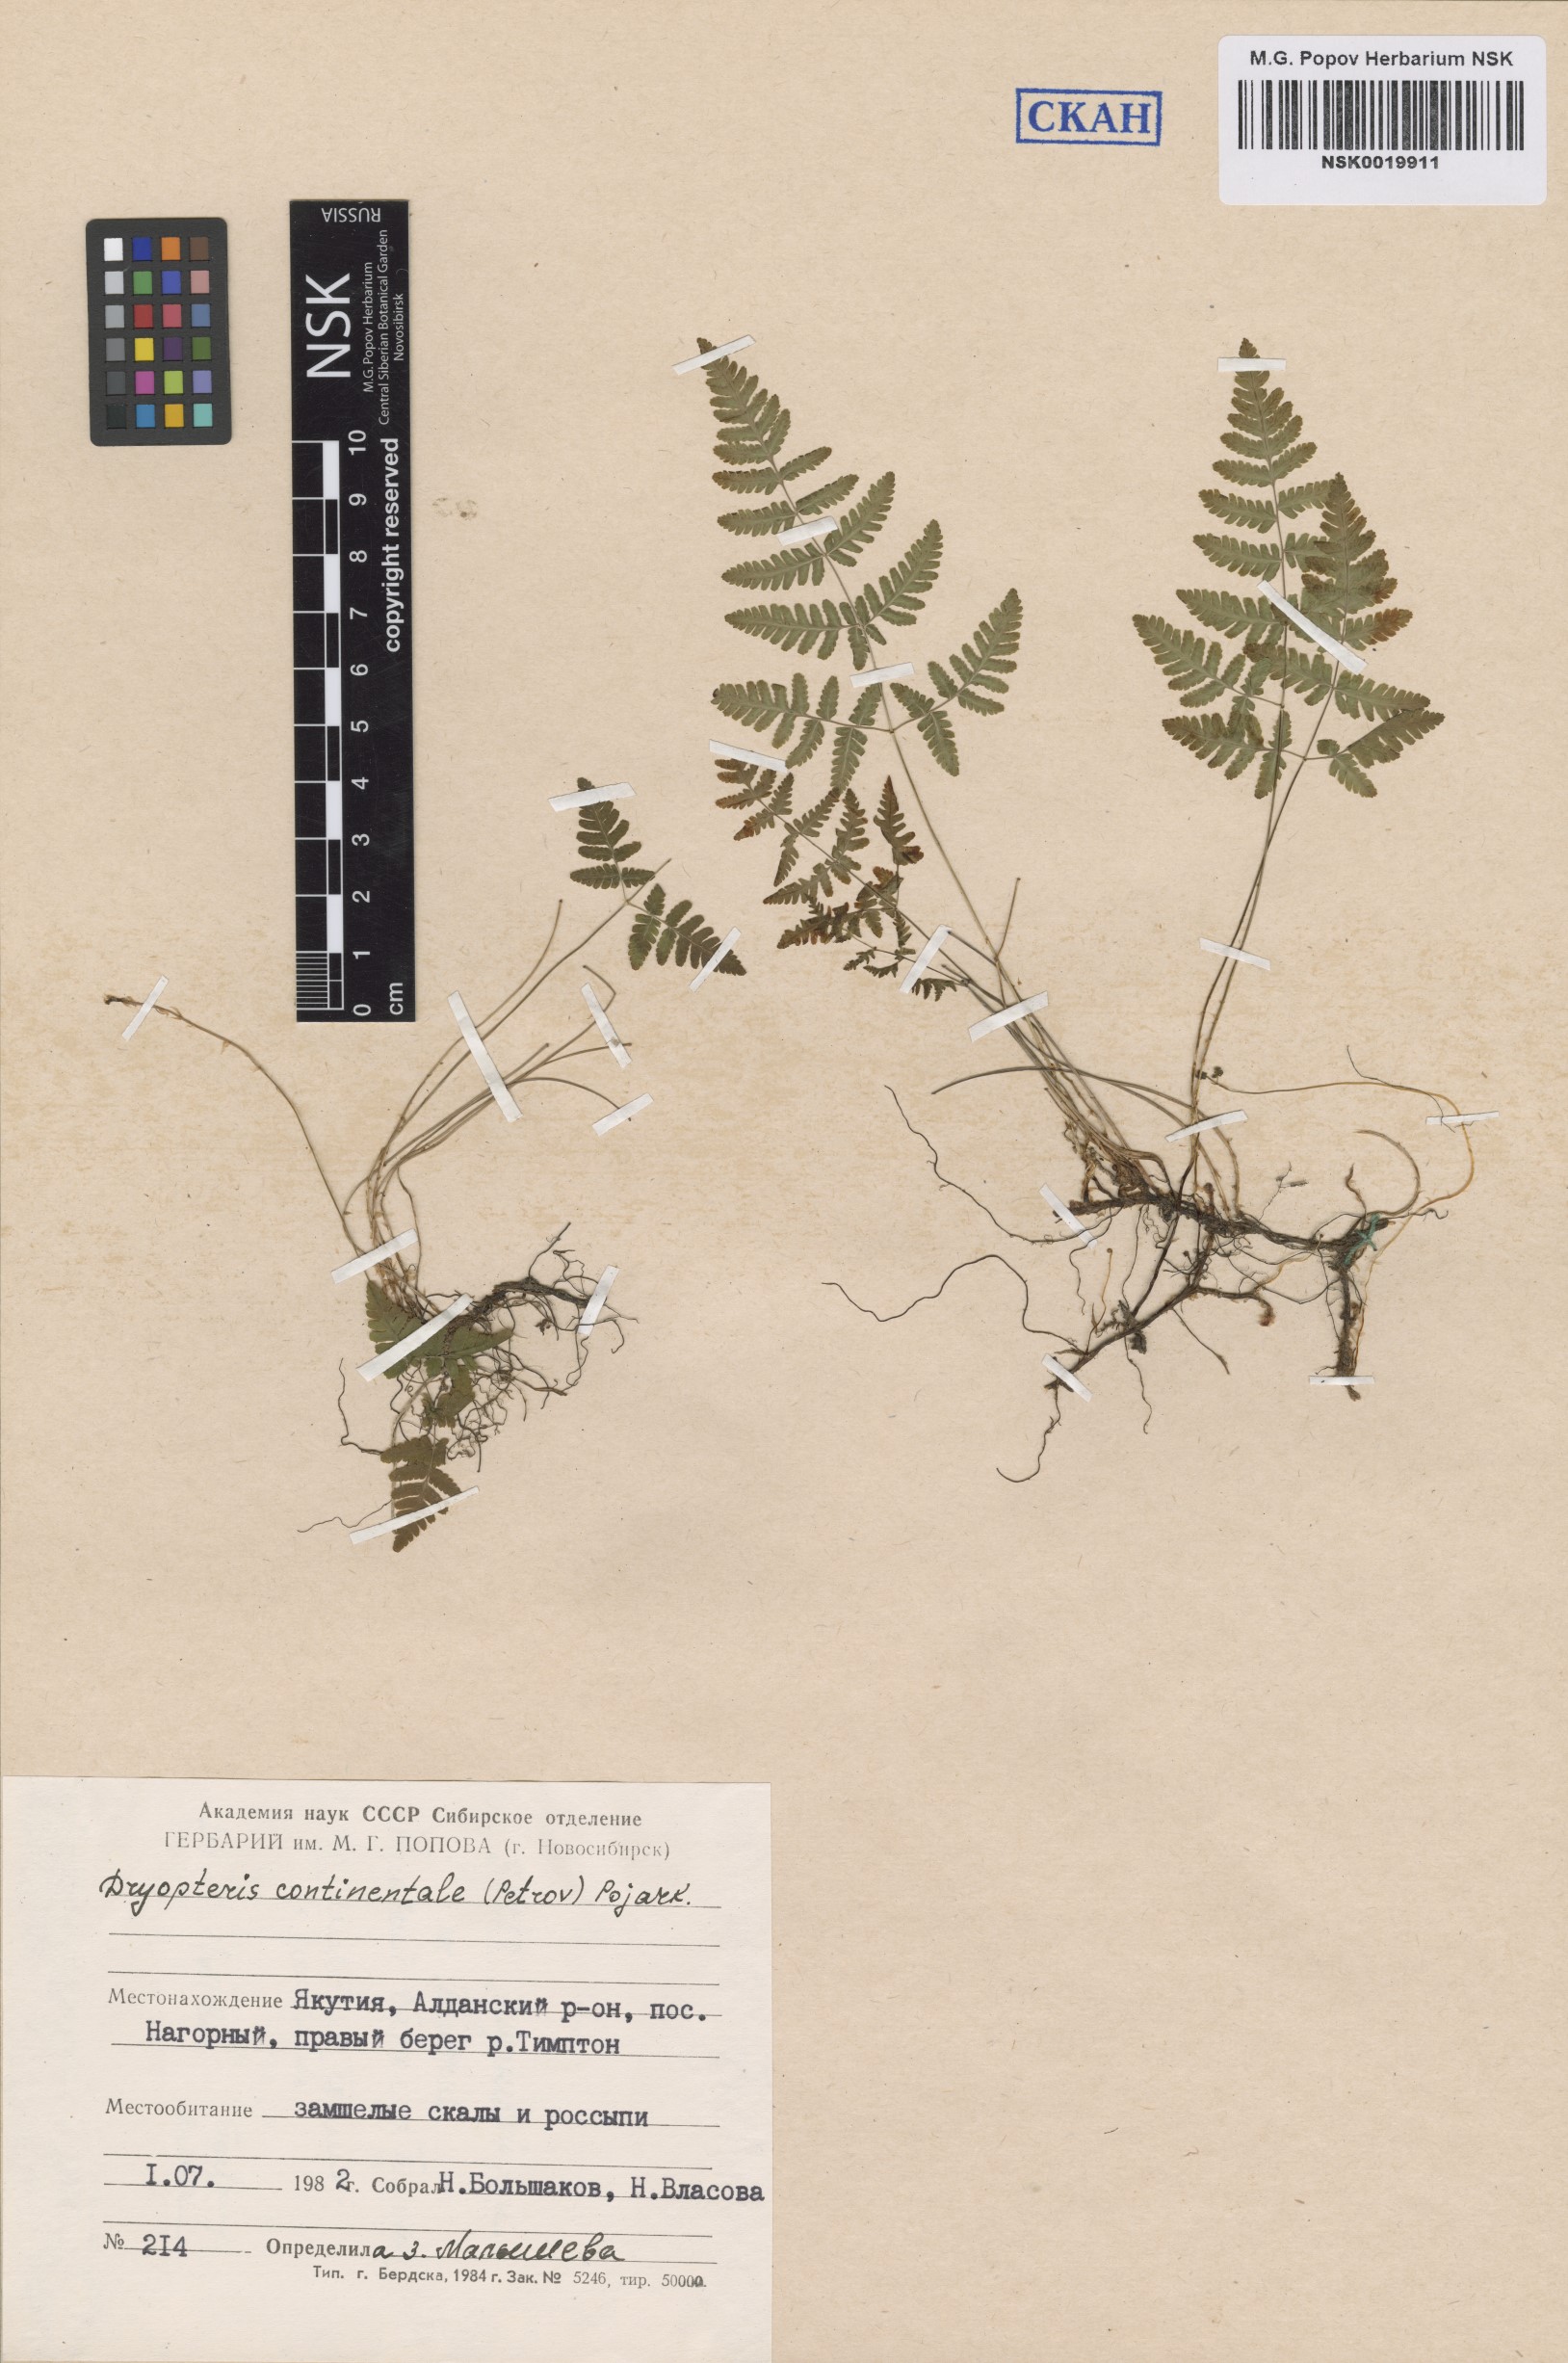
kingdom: Plantae
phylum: Tracheophyta
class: Polypodiopsida
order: Polypodiales
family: Cystopteridaceae
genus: Gymnocarpium
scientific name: Gymnocarpium continentale
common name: Asian oak fern
